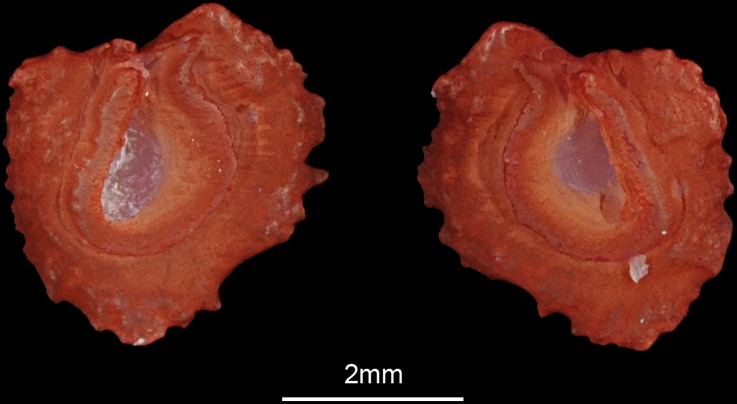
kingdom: Animalia
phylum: Chordata
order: Cypriniformes
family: Cyprinidae
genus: Squalius
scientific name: Squalius cephalus
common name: Chub
